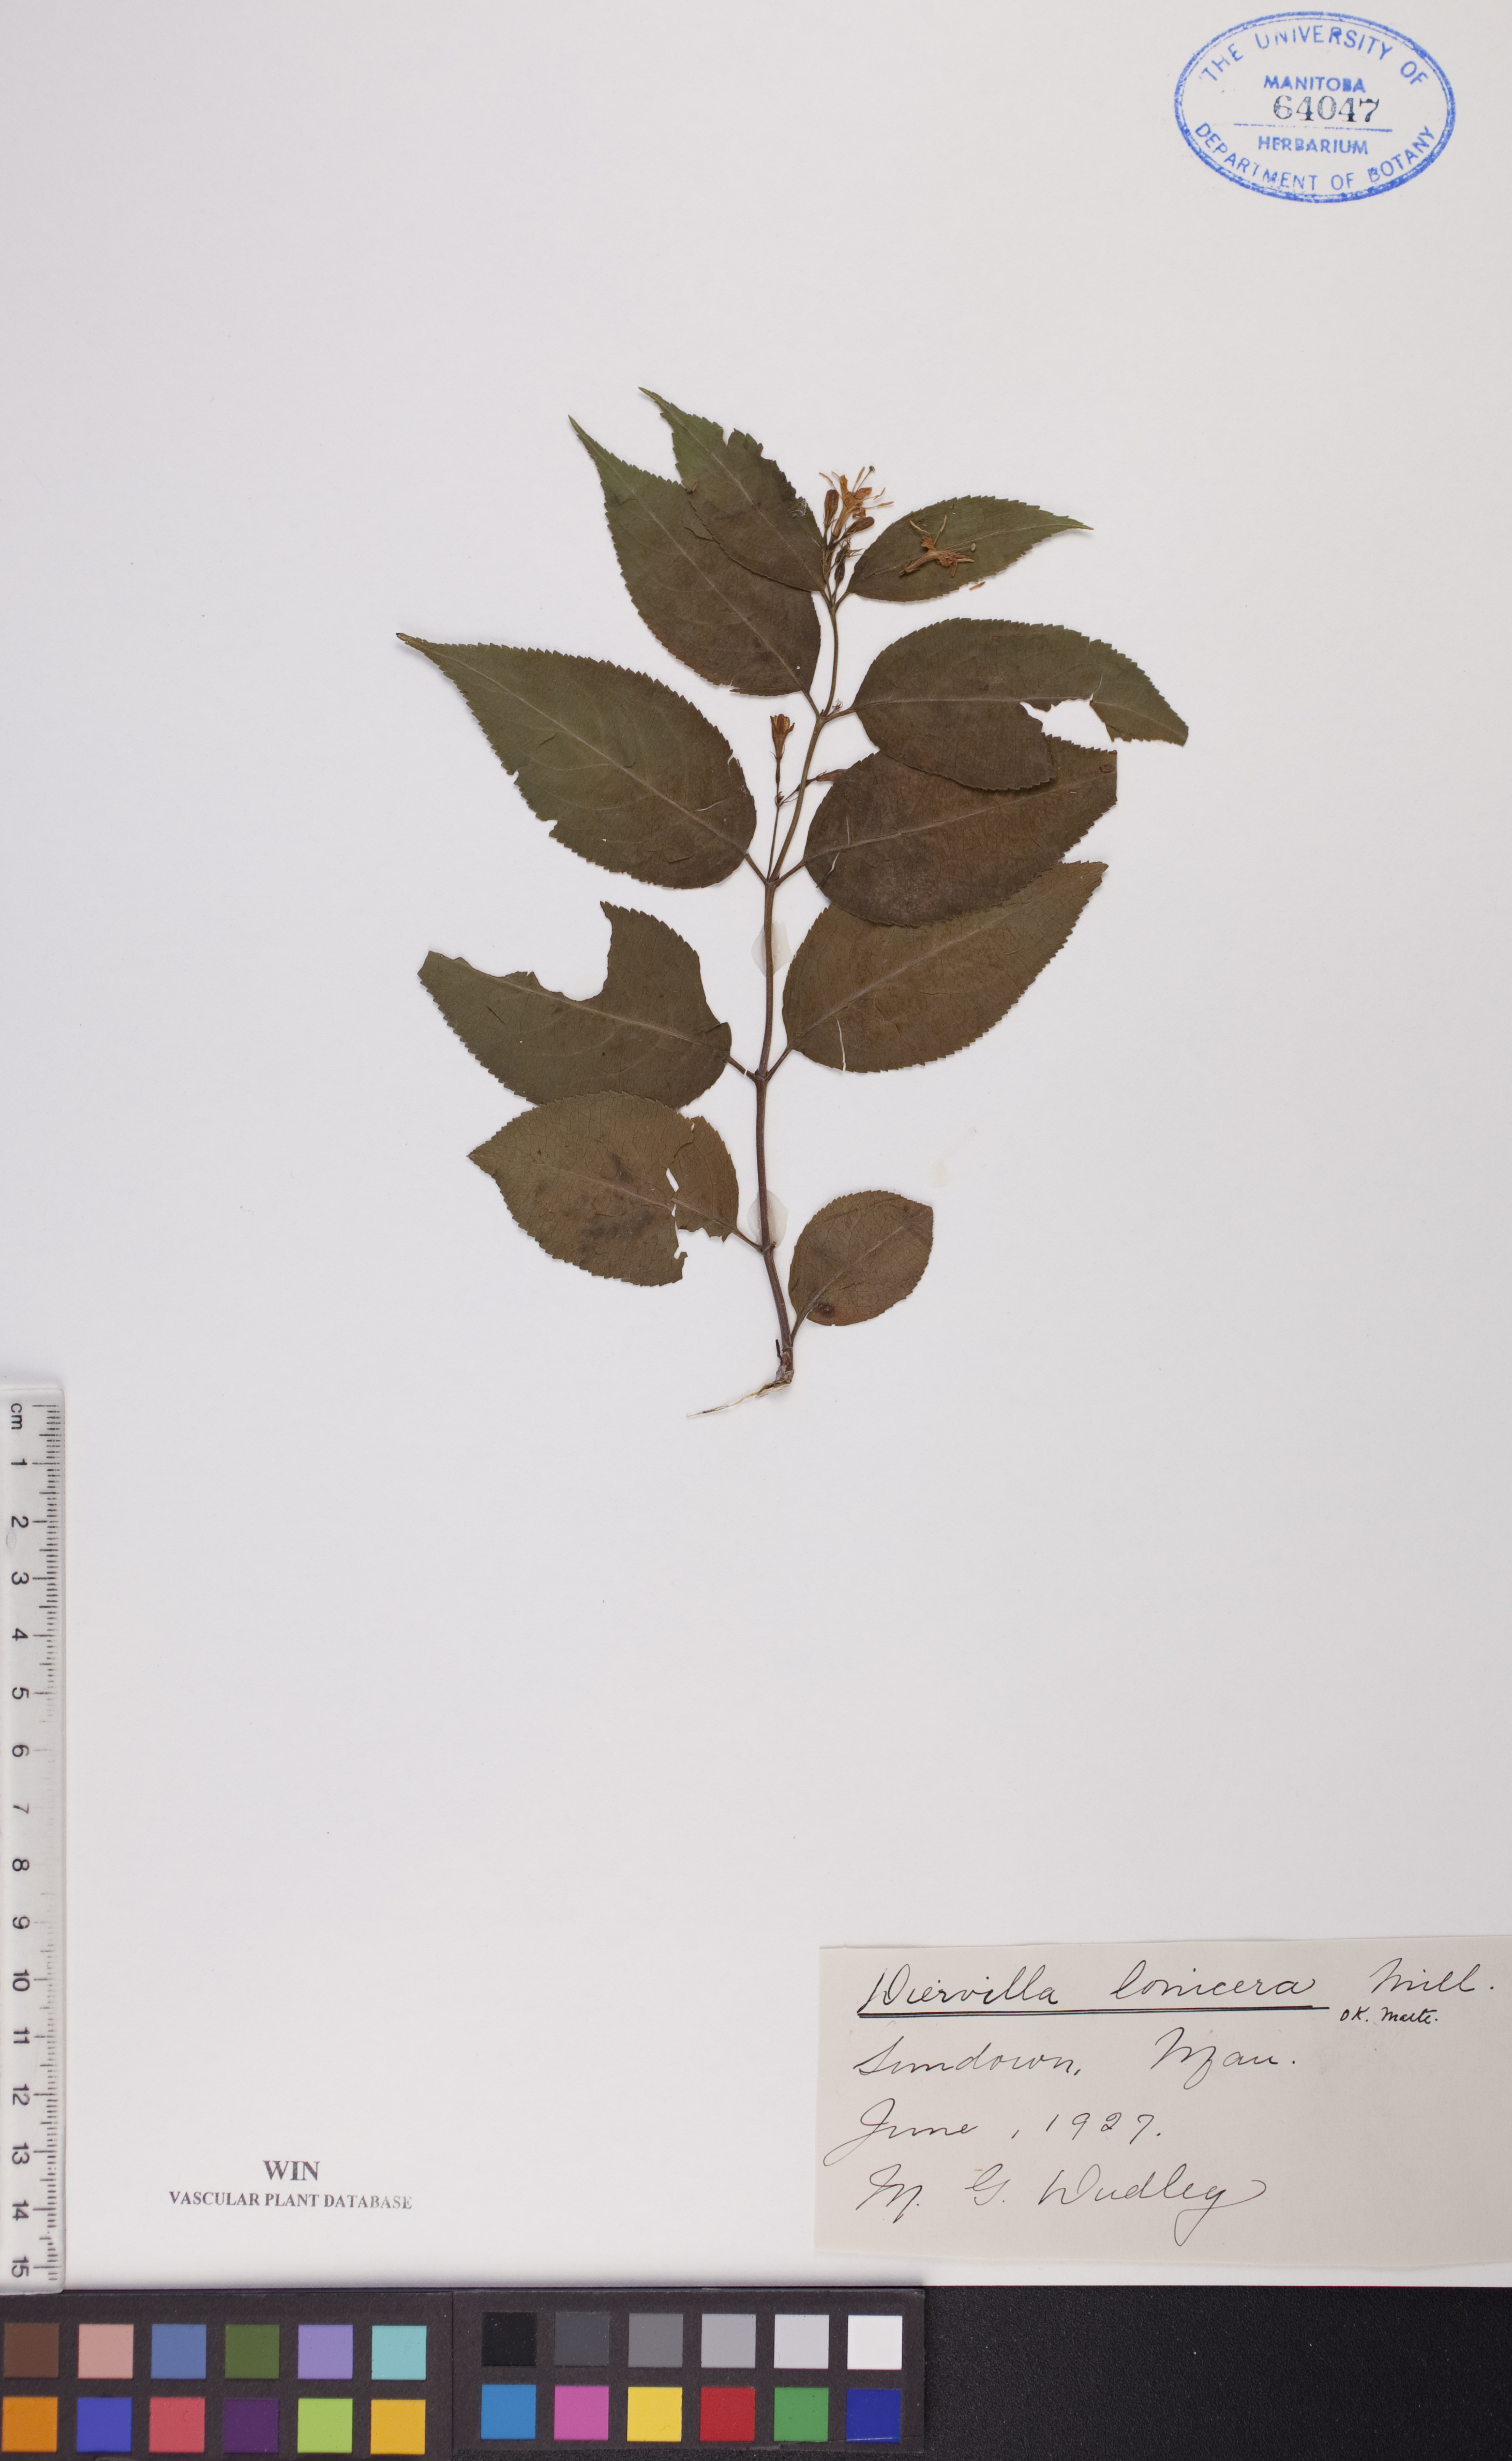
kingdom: Plantae
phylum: Tracheophyta
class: Magnoliopsida
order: Dipsacales
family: Caprifoliaceae
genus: Diervilla
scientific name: Diervilla lonicera
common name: Bush-honeysuckle
